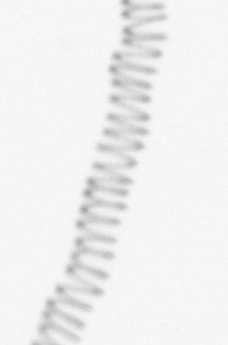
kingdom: Chromista
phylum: Ochrophyta
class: Bacillariophyceae
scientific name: Bacillariophyceae
